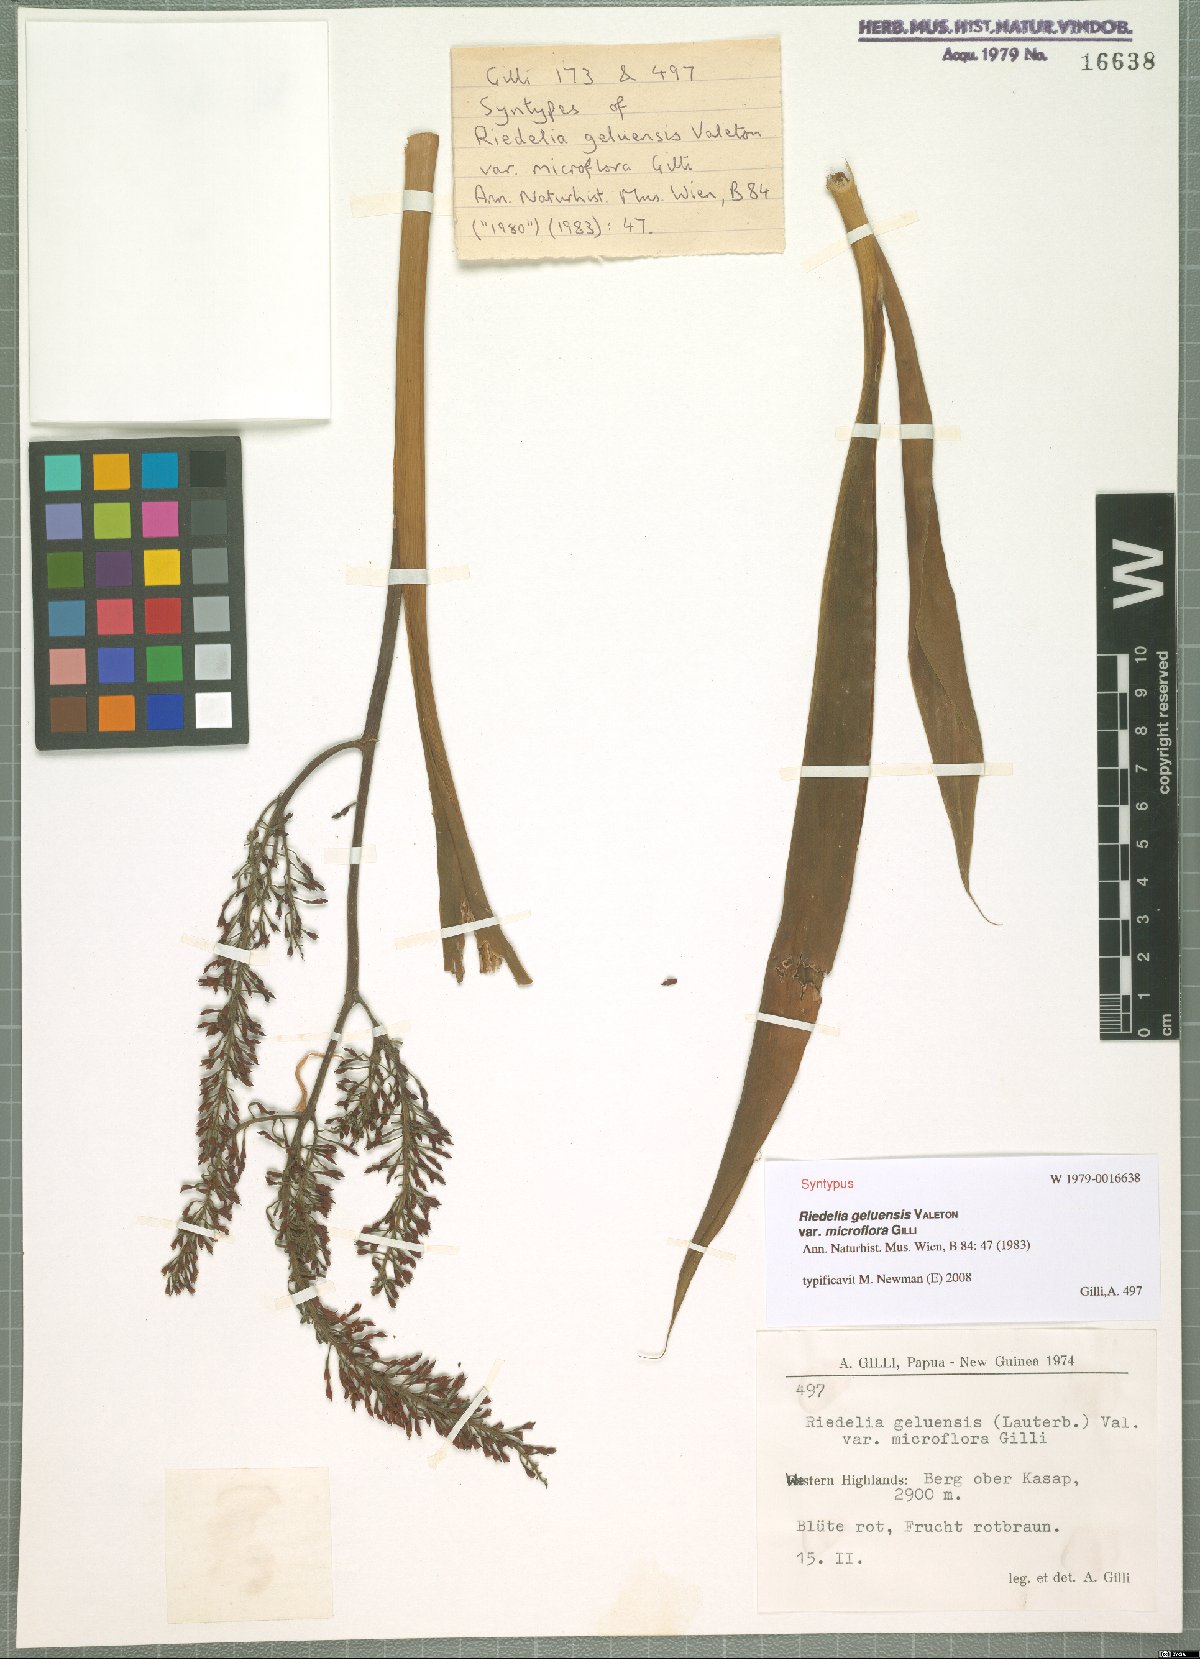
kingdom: Plantae
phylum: Tracheophyta
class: Liliopsida
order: Zingiberales
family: Zingiberaceae
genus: Riedelia
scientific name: Riedelia geluensis
